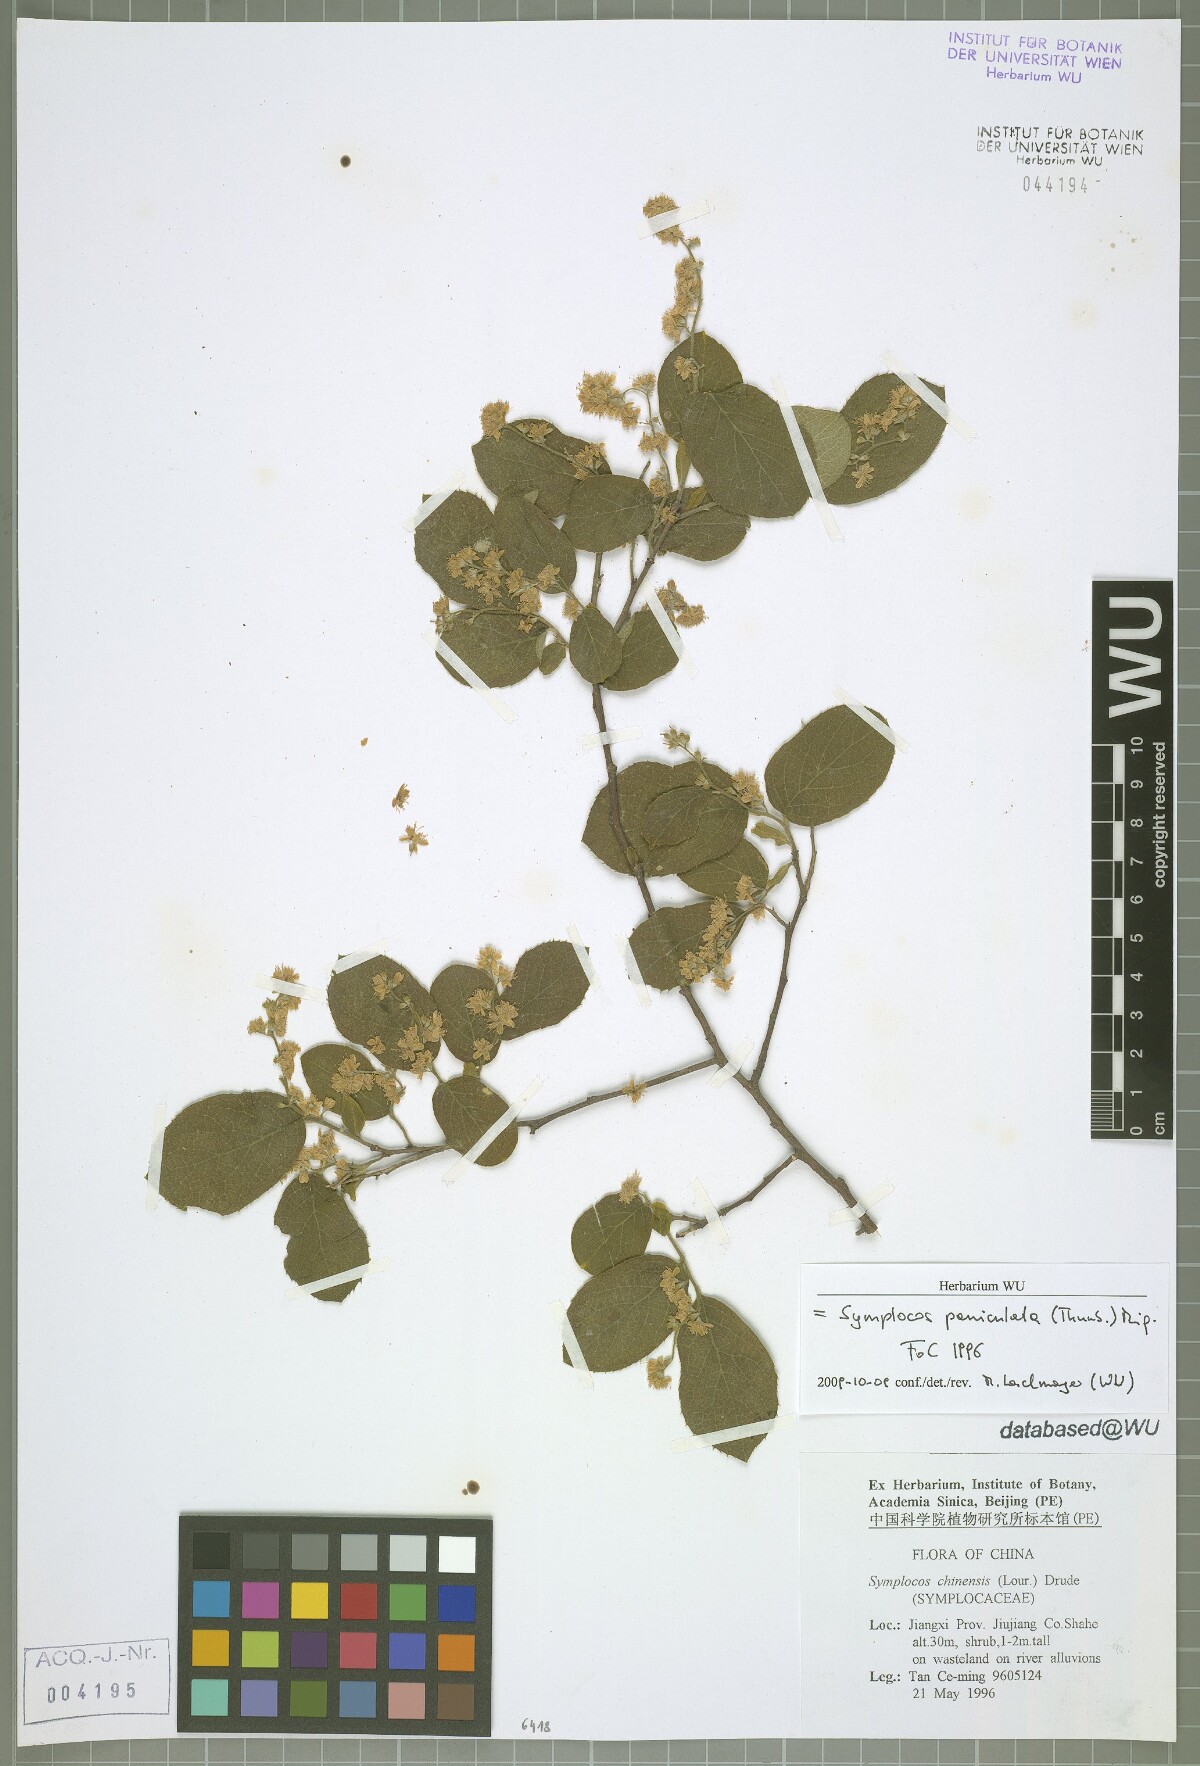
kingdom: Plantae
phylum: Tracheophyta
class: Magnoliopsida
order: Ericales
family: Symplocaceae
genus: Symplocos
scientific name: Symplocos paniculata
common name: Sapphire-berry
